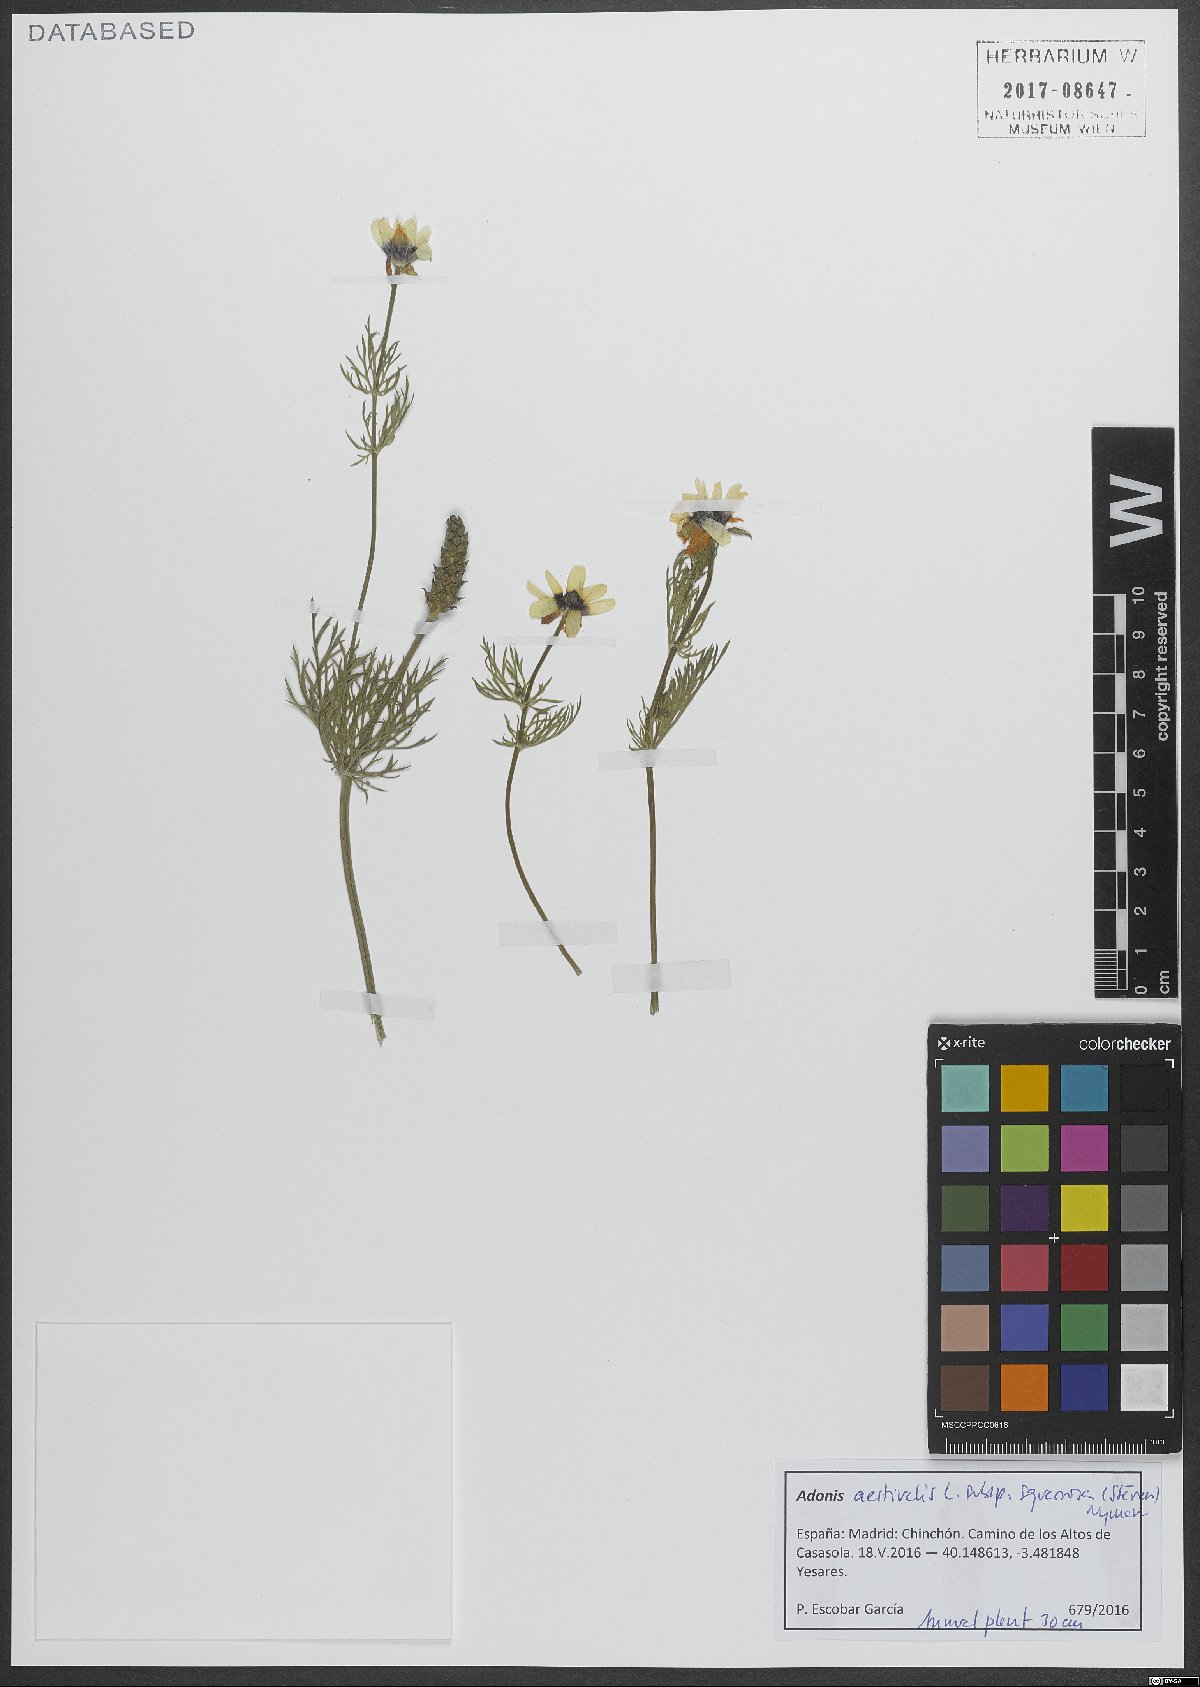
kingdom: Plantae
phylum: Tracheophyta
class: Magnoliopsida
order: Ranunculales
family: Ranunculaceae
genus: Adonis
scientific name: Adonis aestivalis
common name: Summer pheasant's-eye
